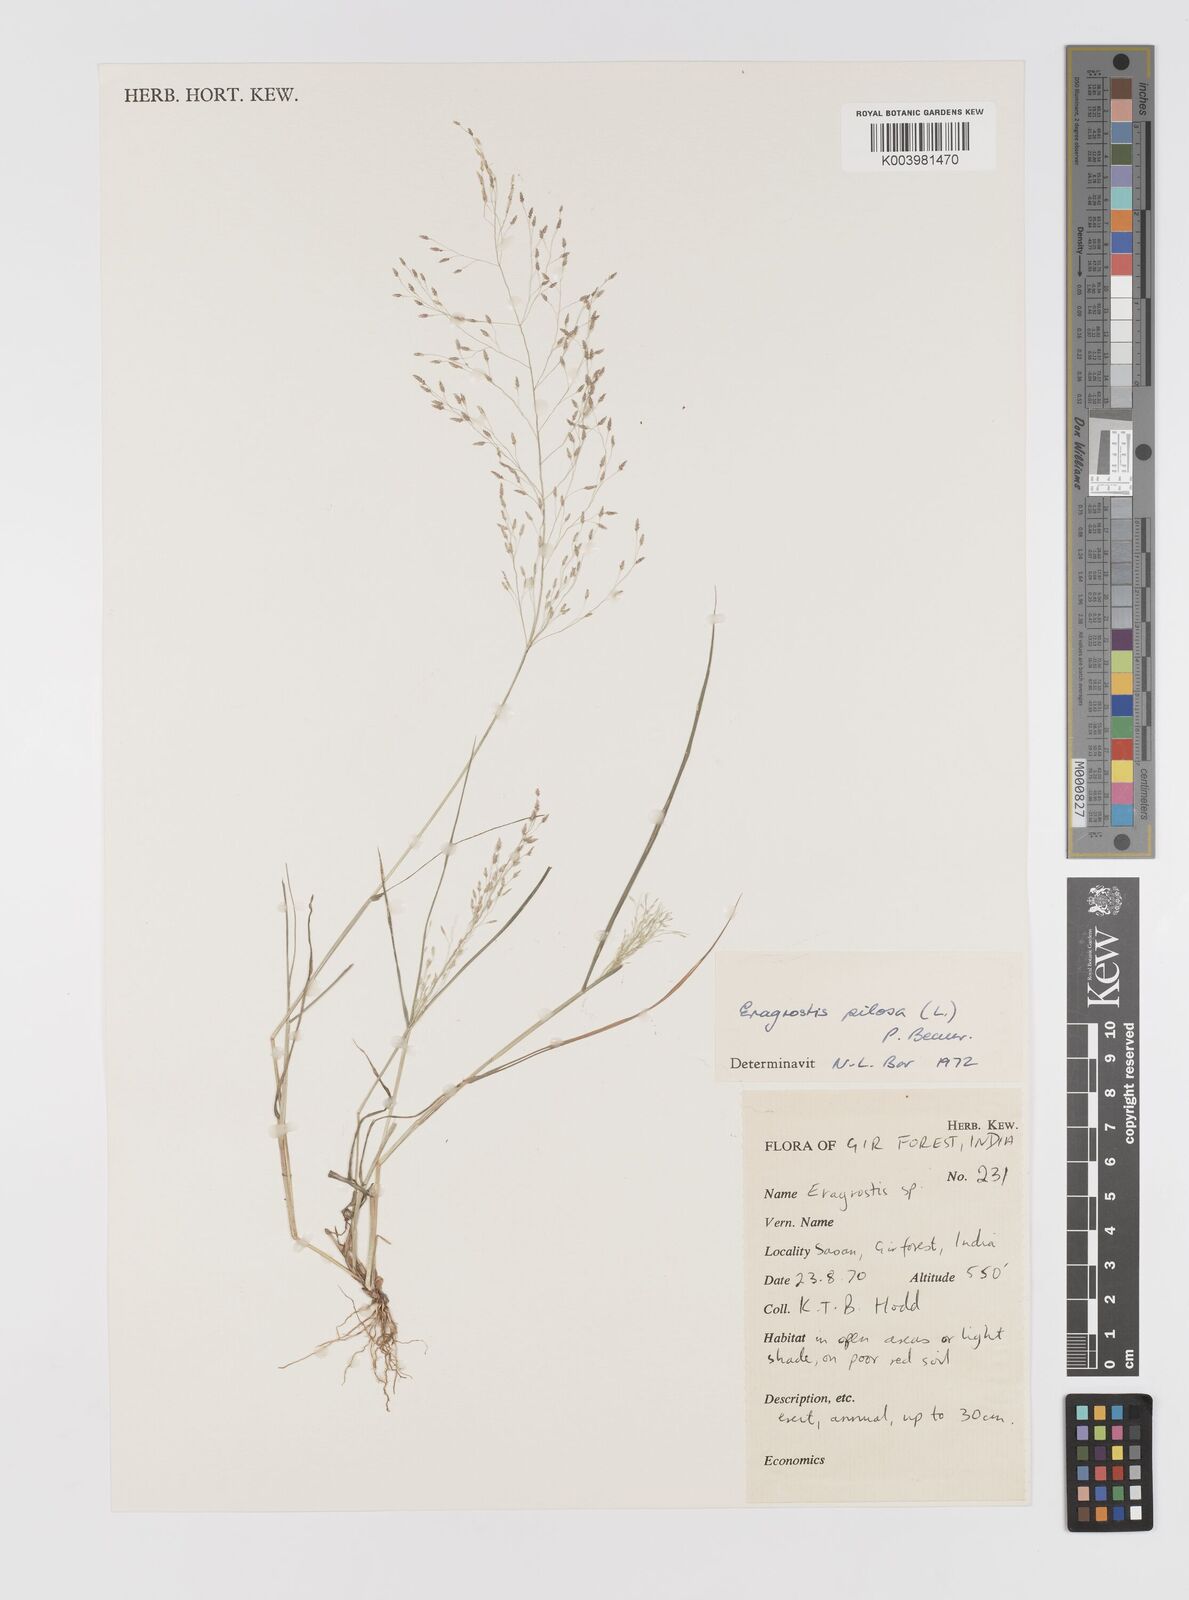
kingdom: Plantae
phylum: Tracheophyta
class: Liliopsida
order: Poales
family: Poaceae
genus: Eragrostis
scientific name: Eragrostis pilosa
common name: Indian lovegrass
